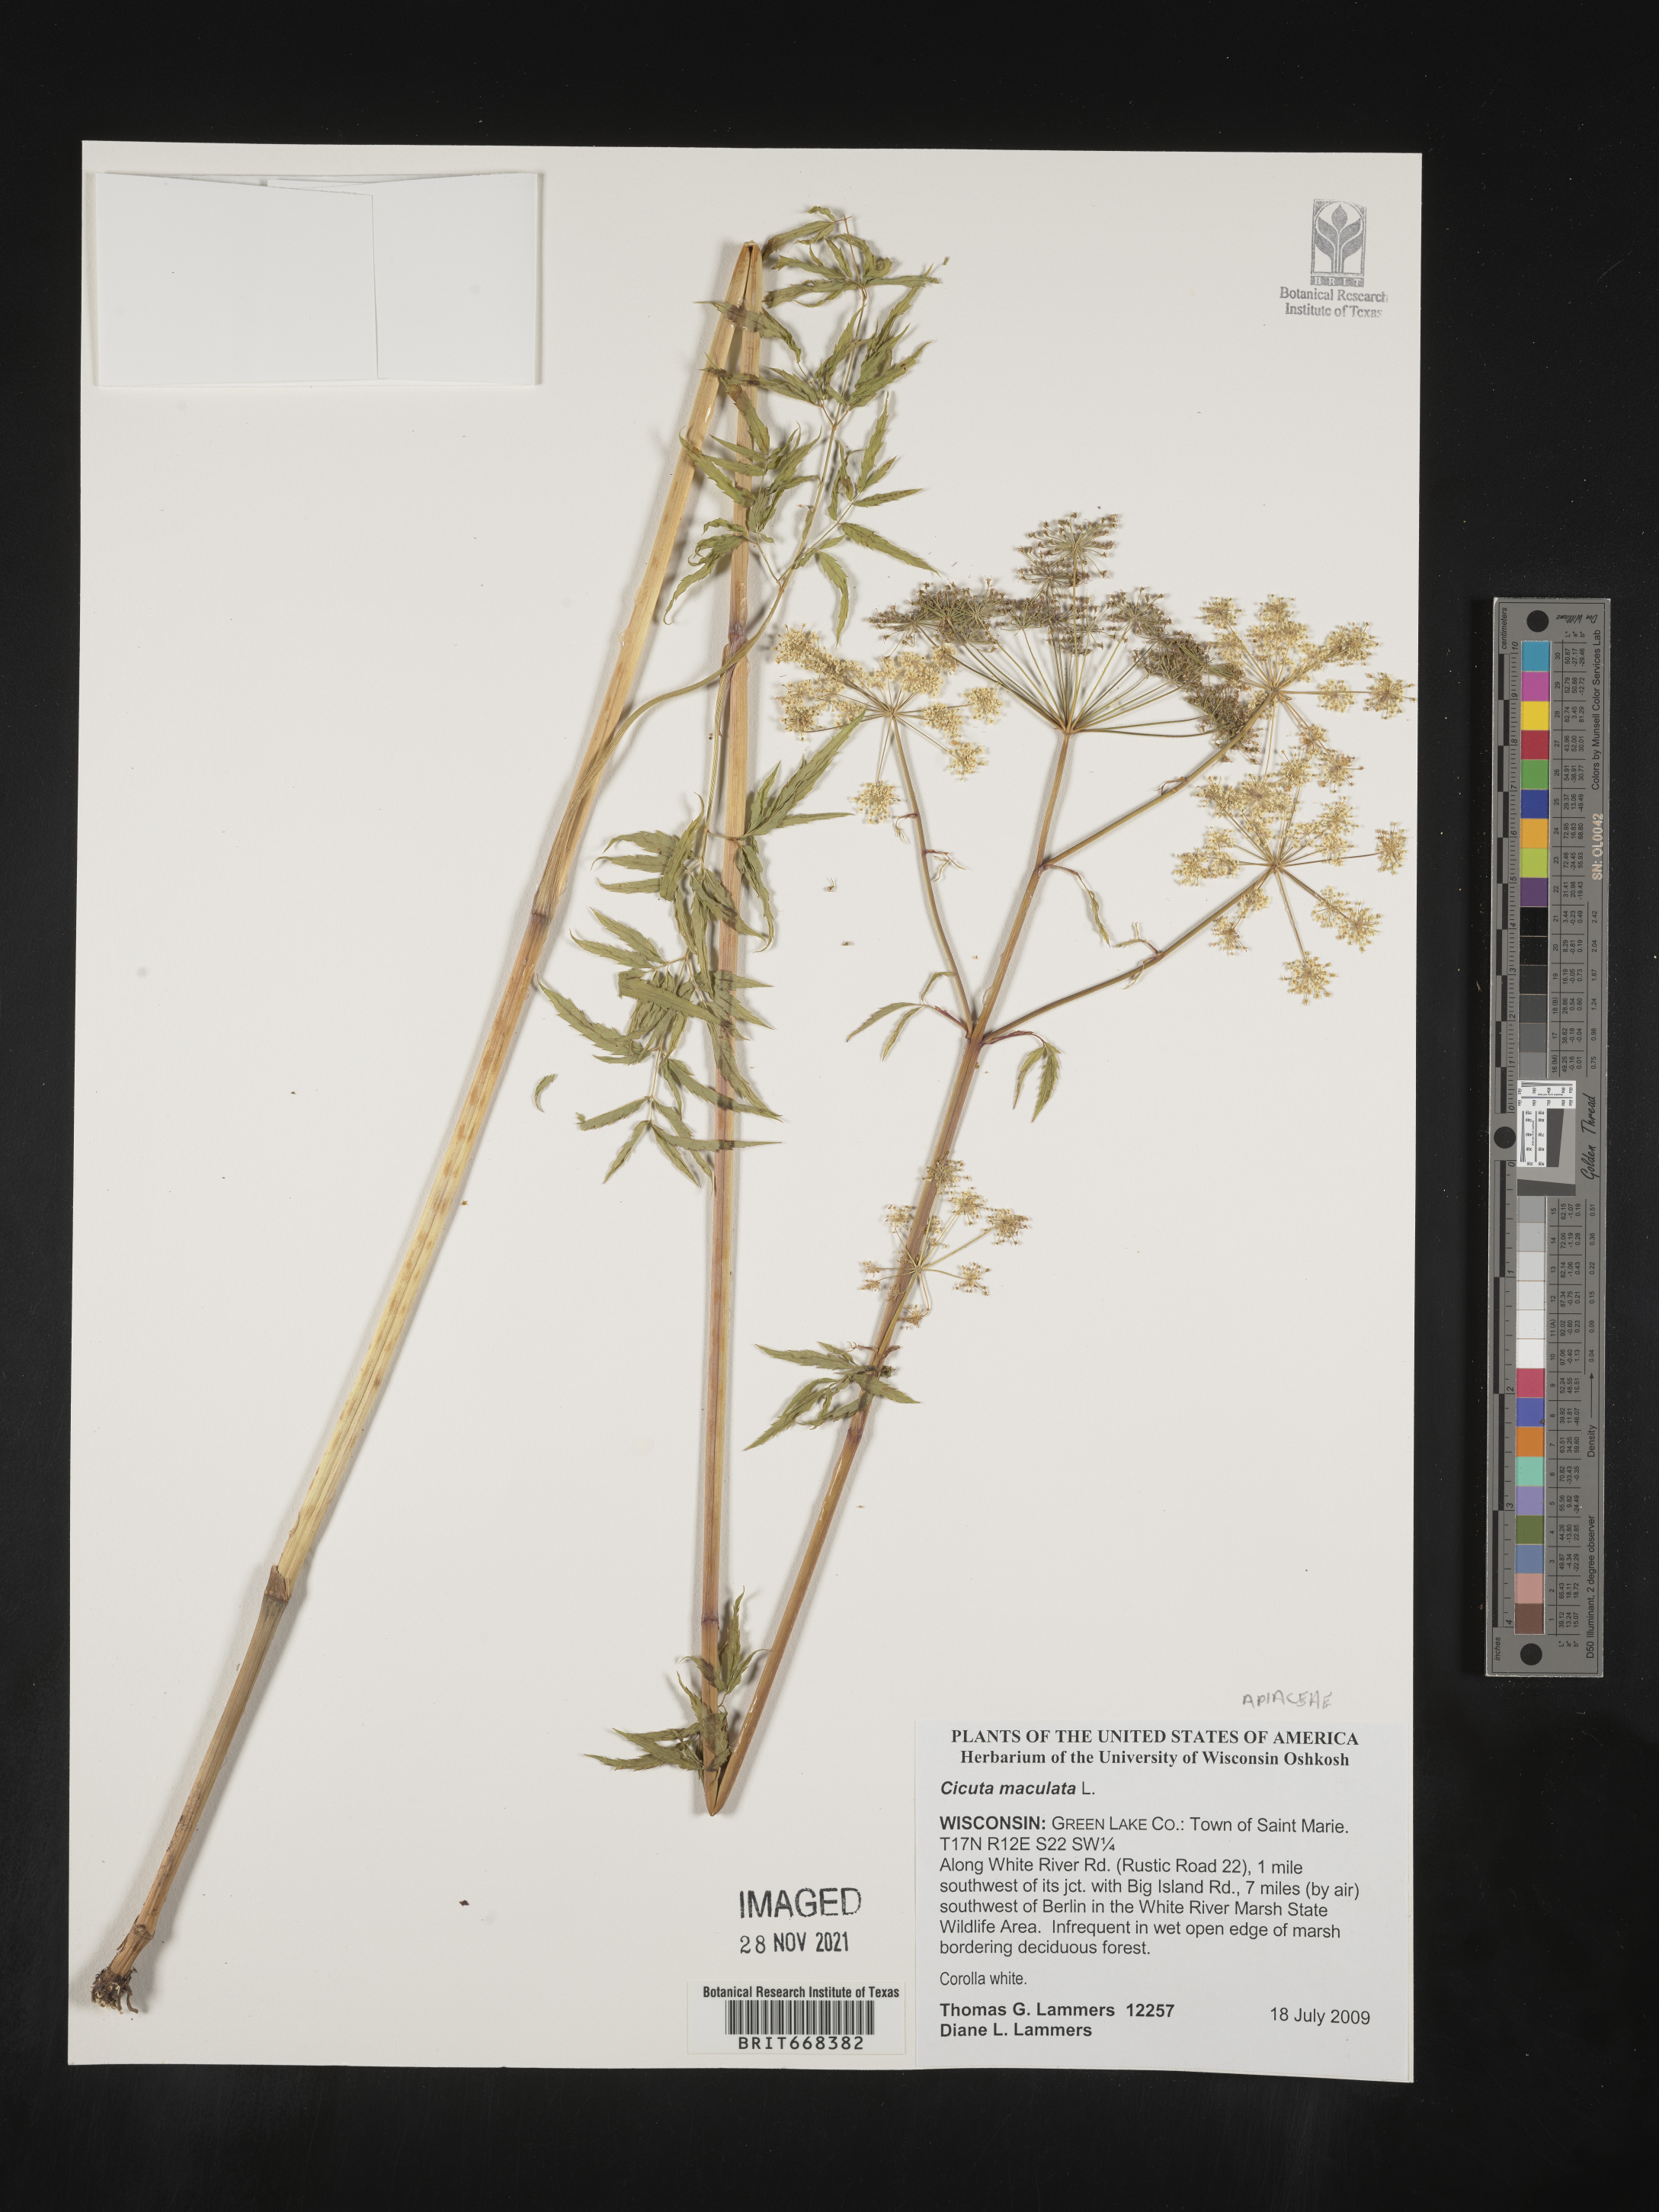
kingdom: Plantae
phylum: Tracheophyta
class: Magnoliopsida
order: Apiales
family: Apiaceae
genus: Cicuta
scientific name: Cicuta maculata
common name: Spotted cowbane
